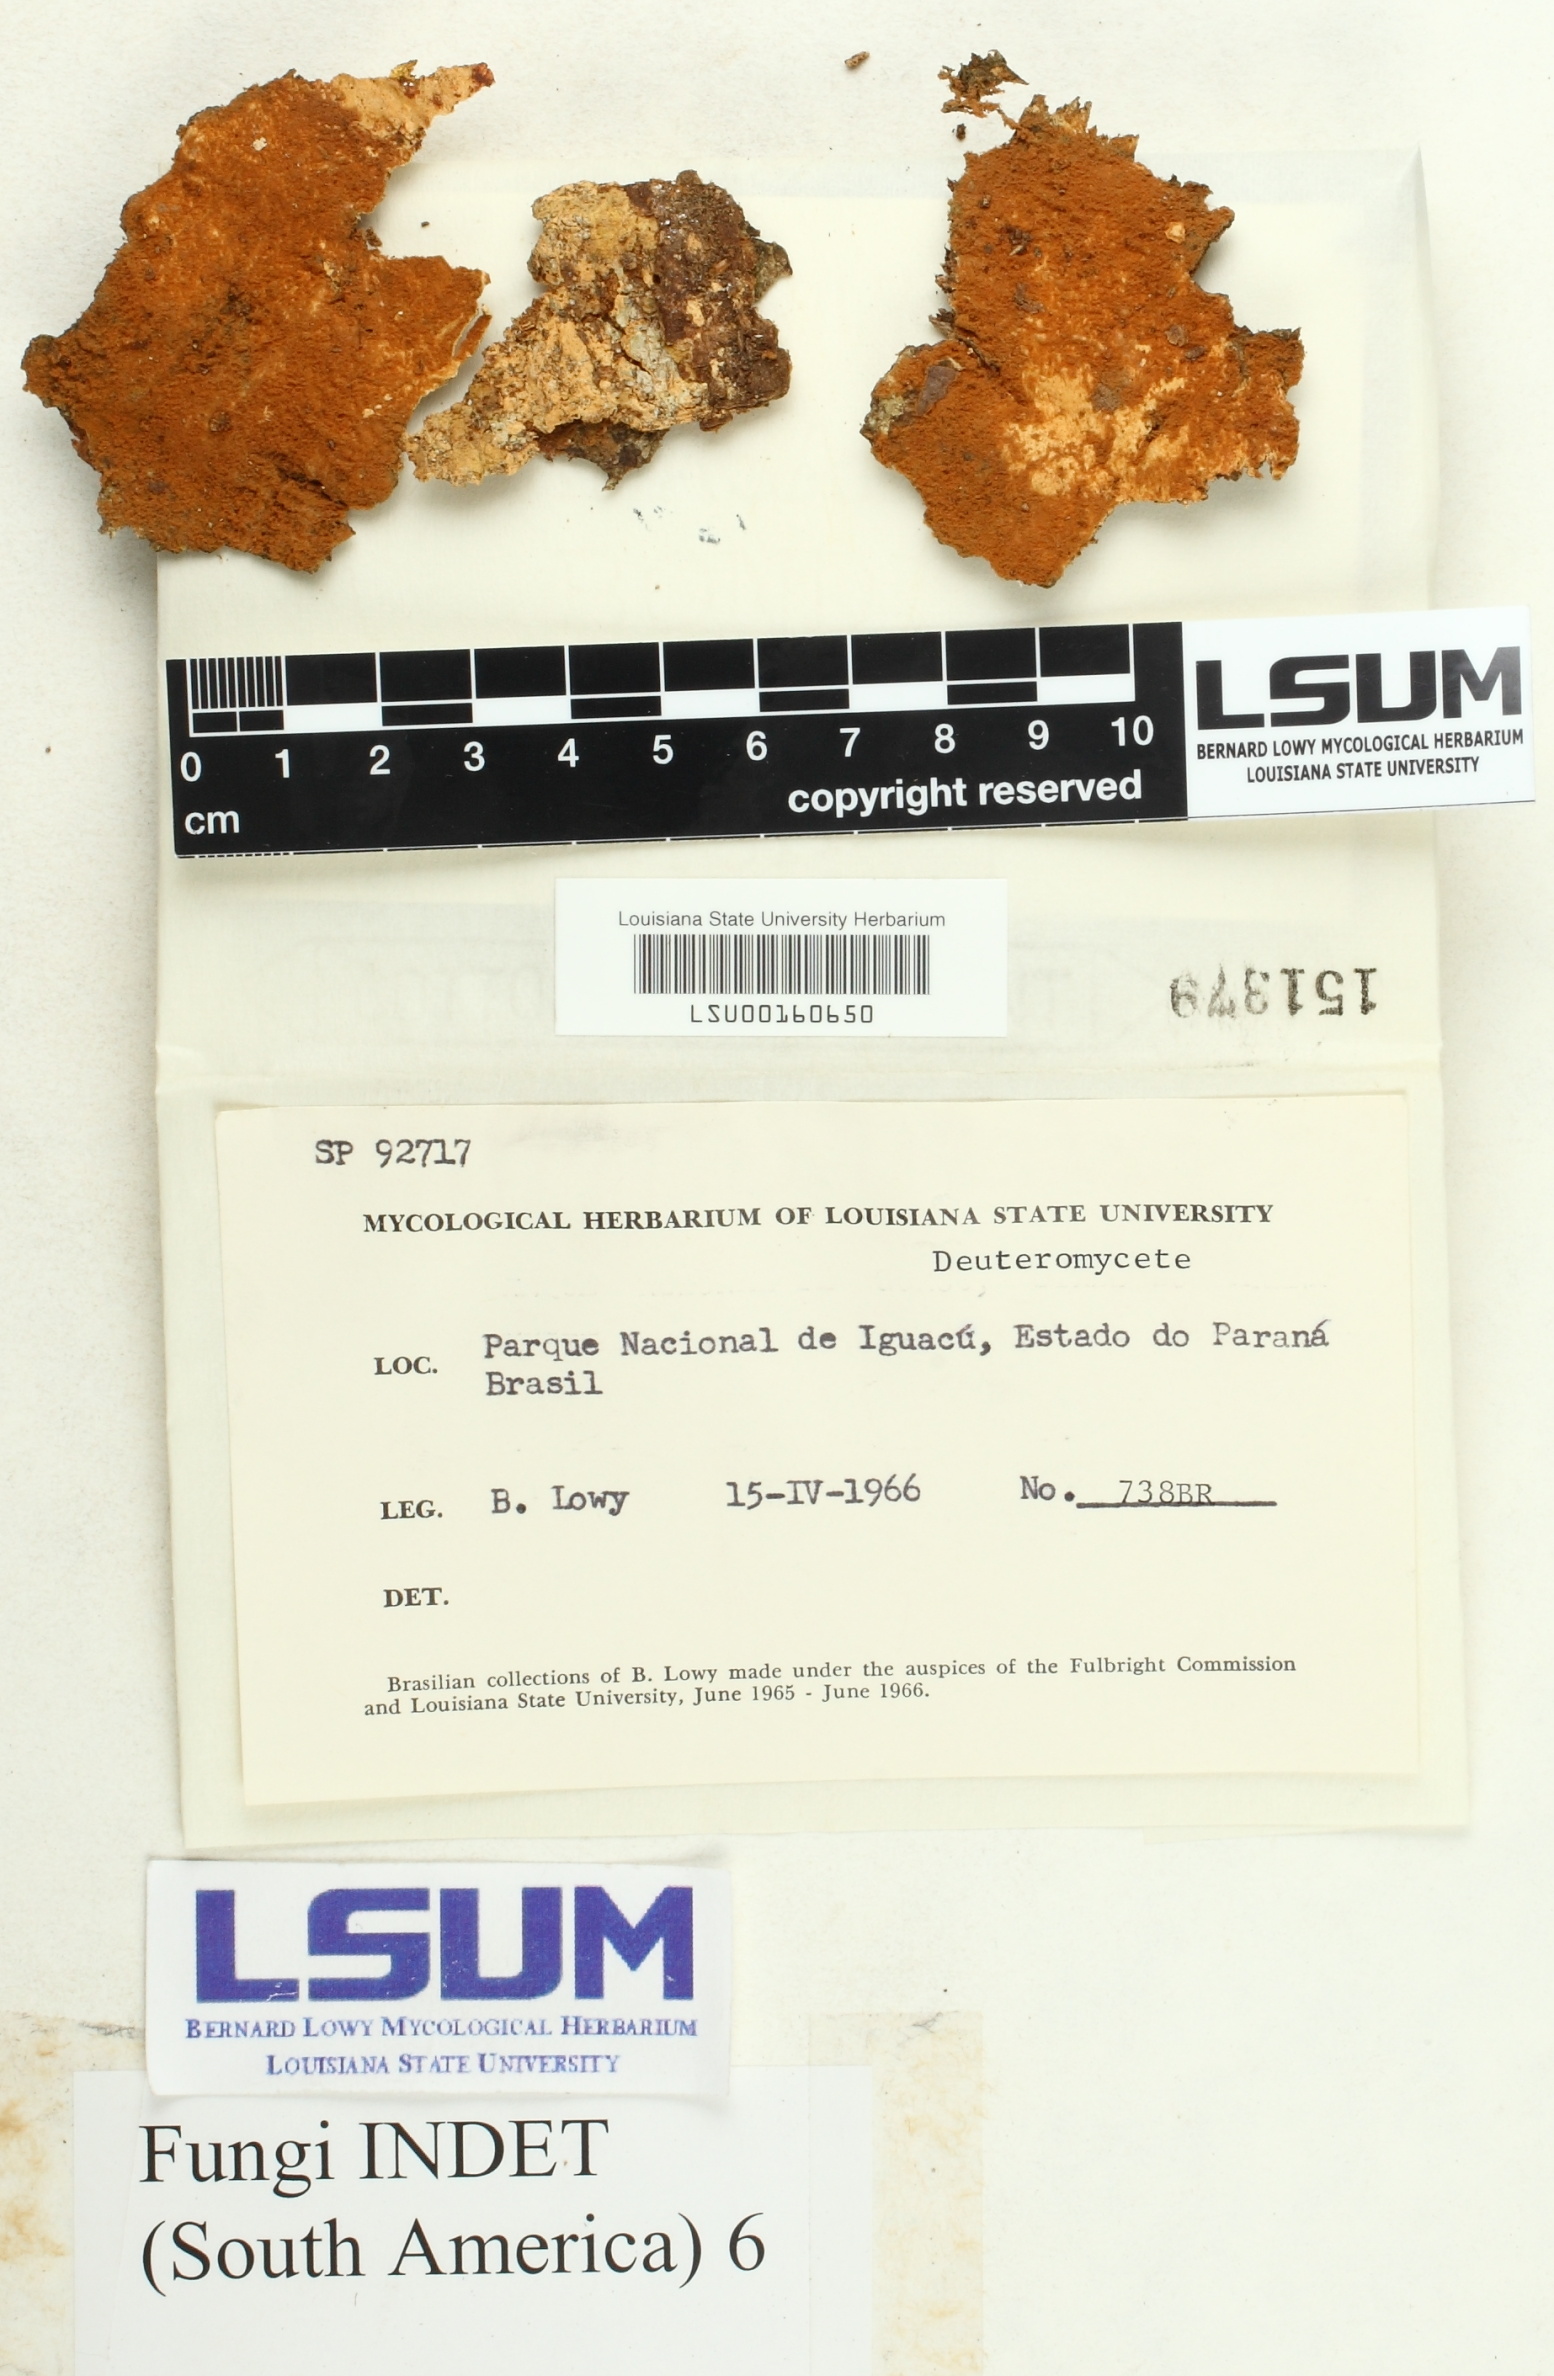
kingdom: Fungi
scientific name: Fungi
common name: Fungi
